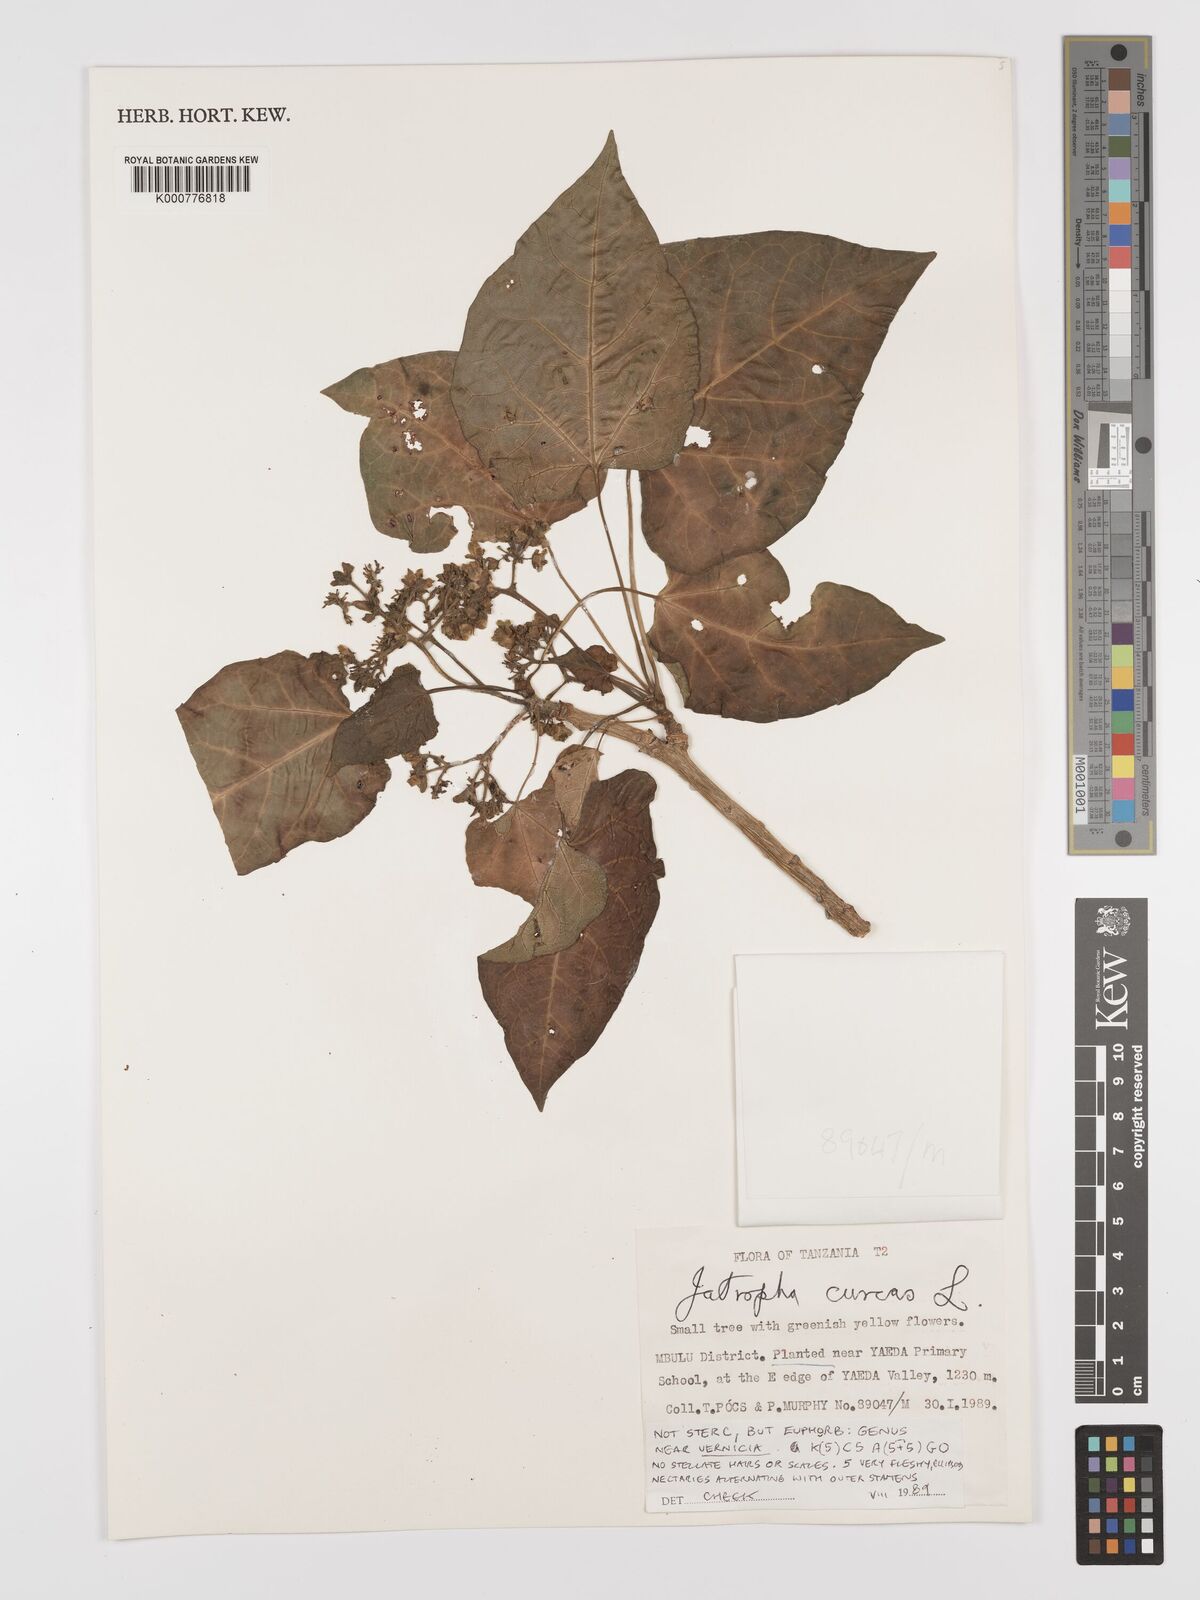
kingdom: Plantae
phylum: Tracheophyta
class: Magnoliopsida
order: Malpighiales
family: Euphorbiaceae
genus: Jatropha
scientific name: Jatropha curcas
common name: Barbados nut
